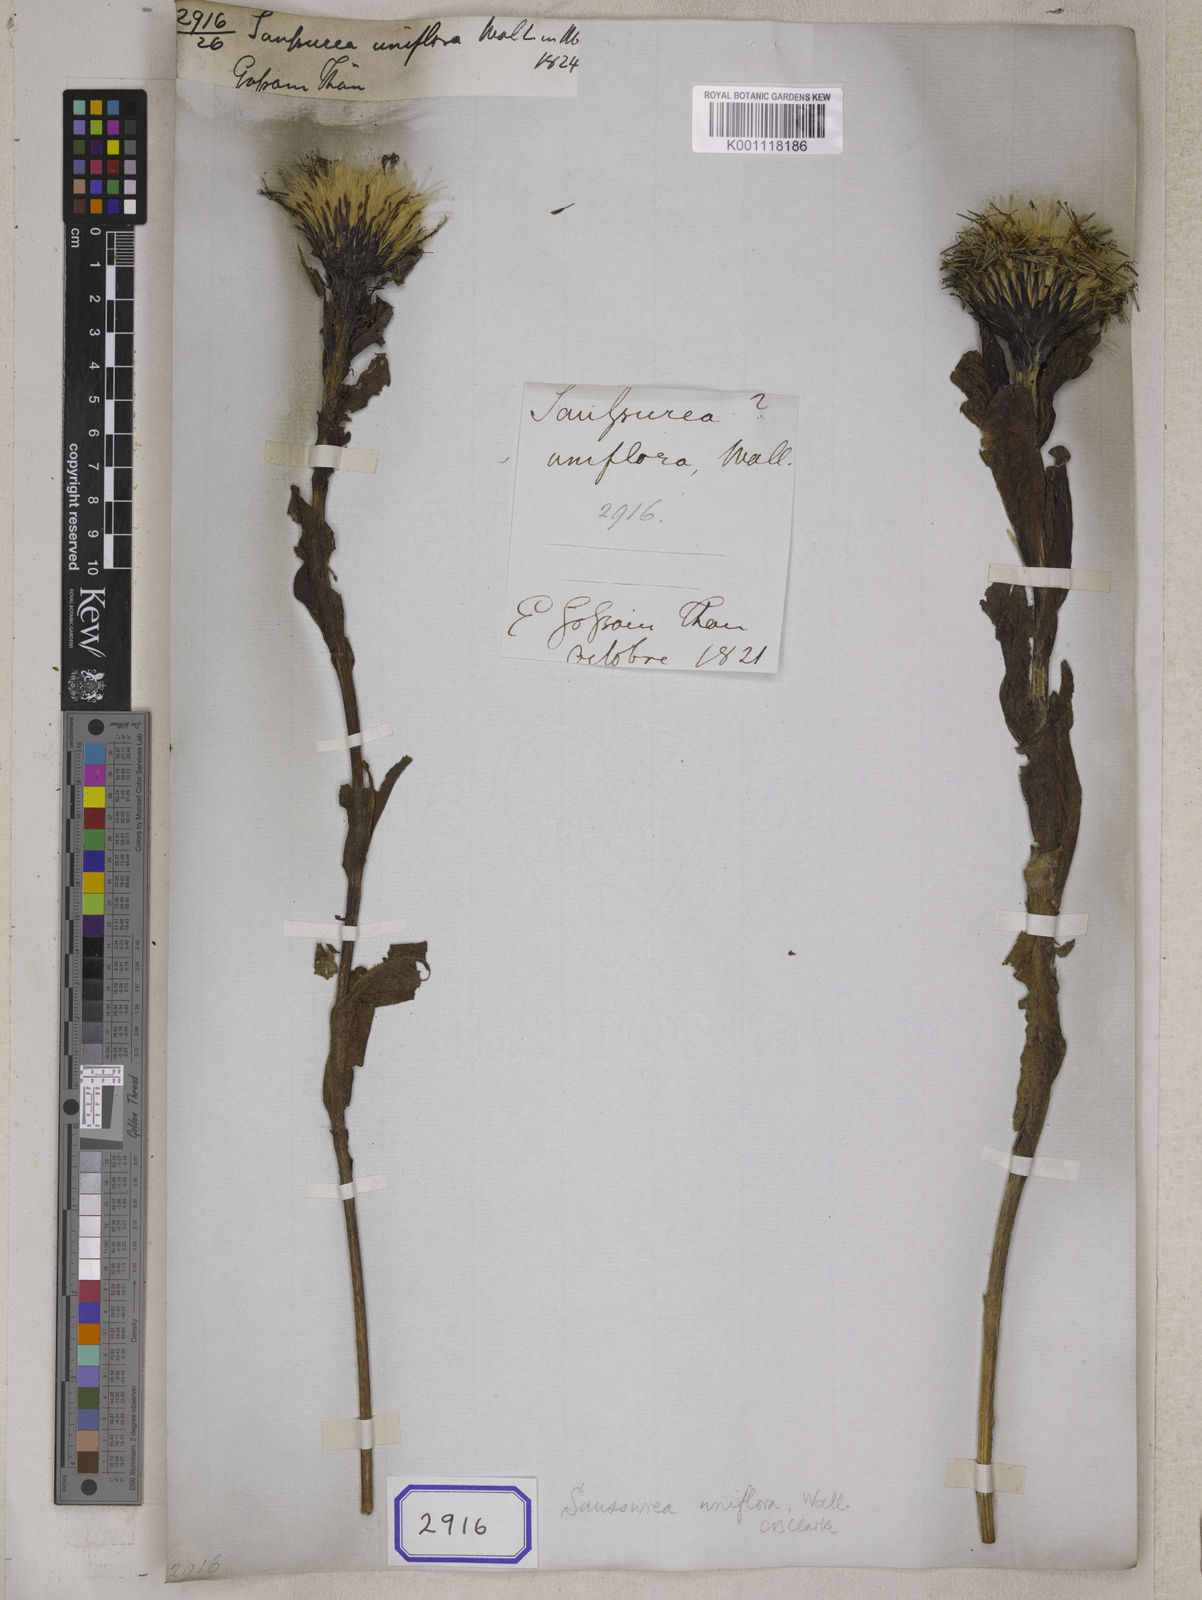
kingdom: Plantae
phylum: Tracheophyta
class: Magnoliopsida
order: Asterales
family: Asteraceae
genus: Saussurea
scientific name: Saussurea
